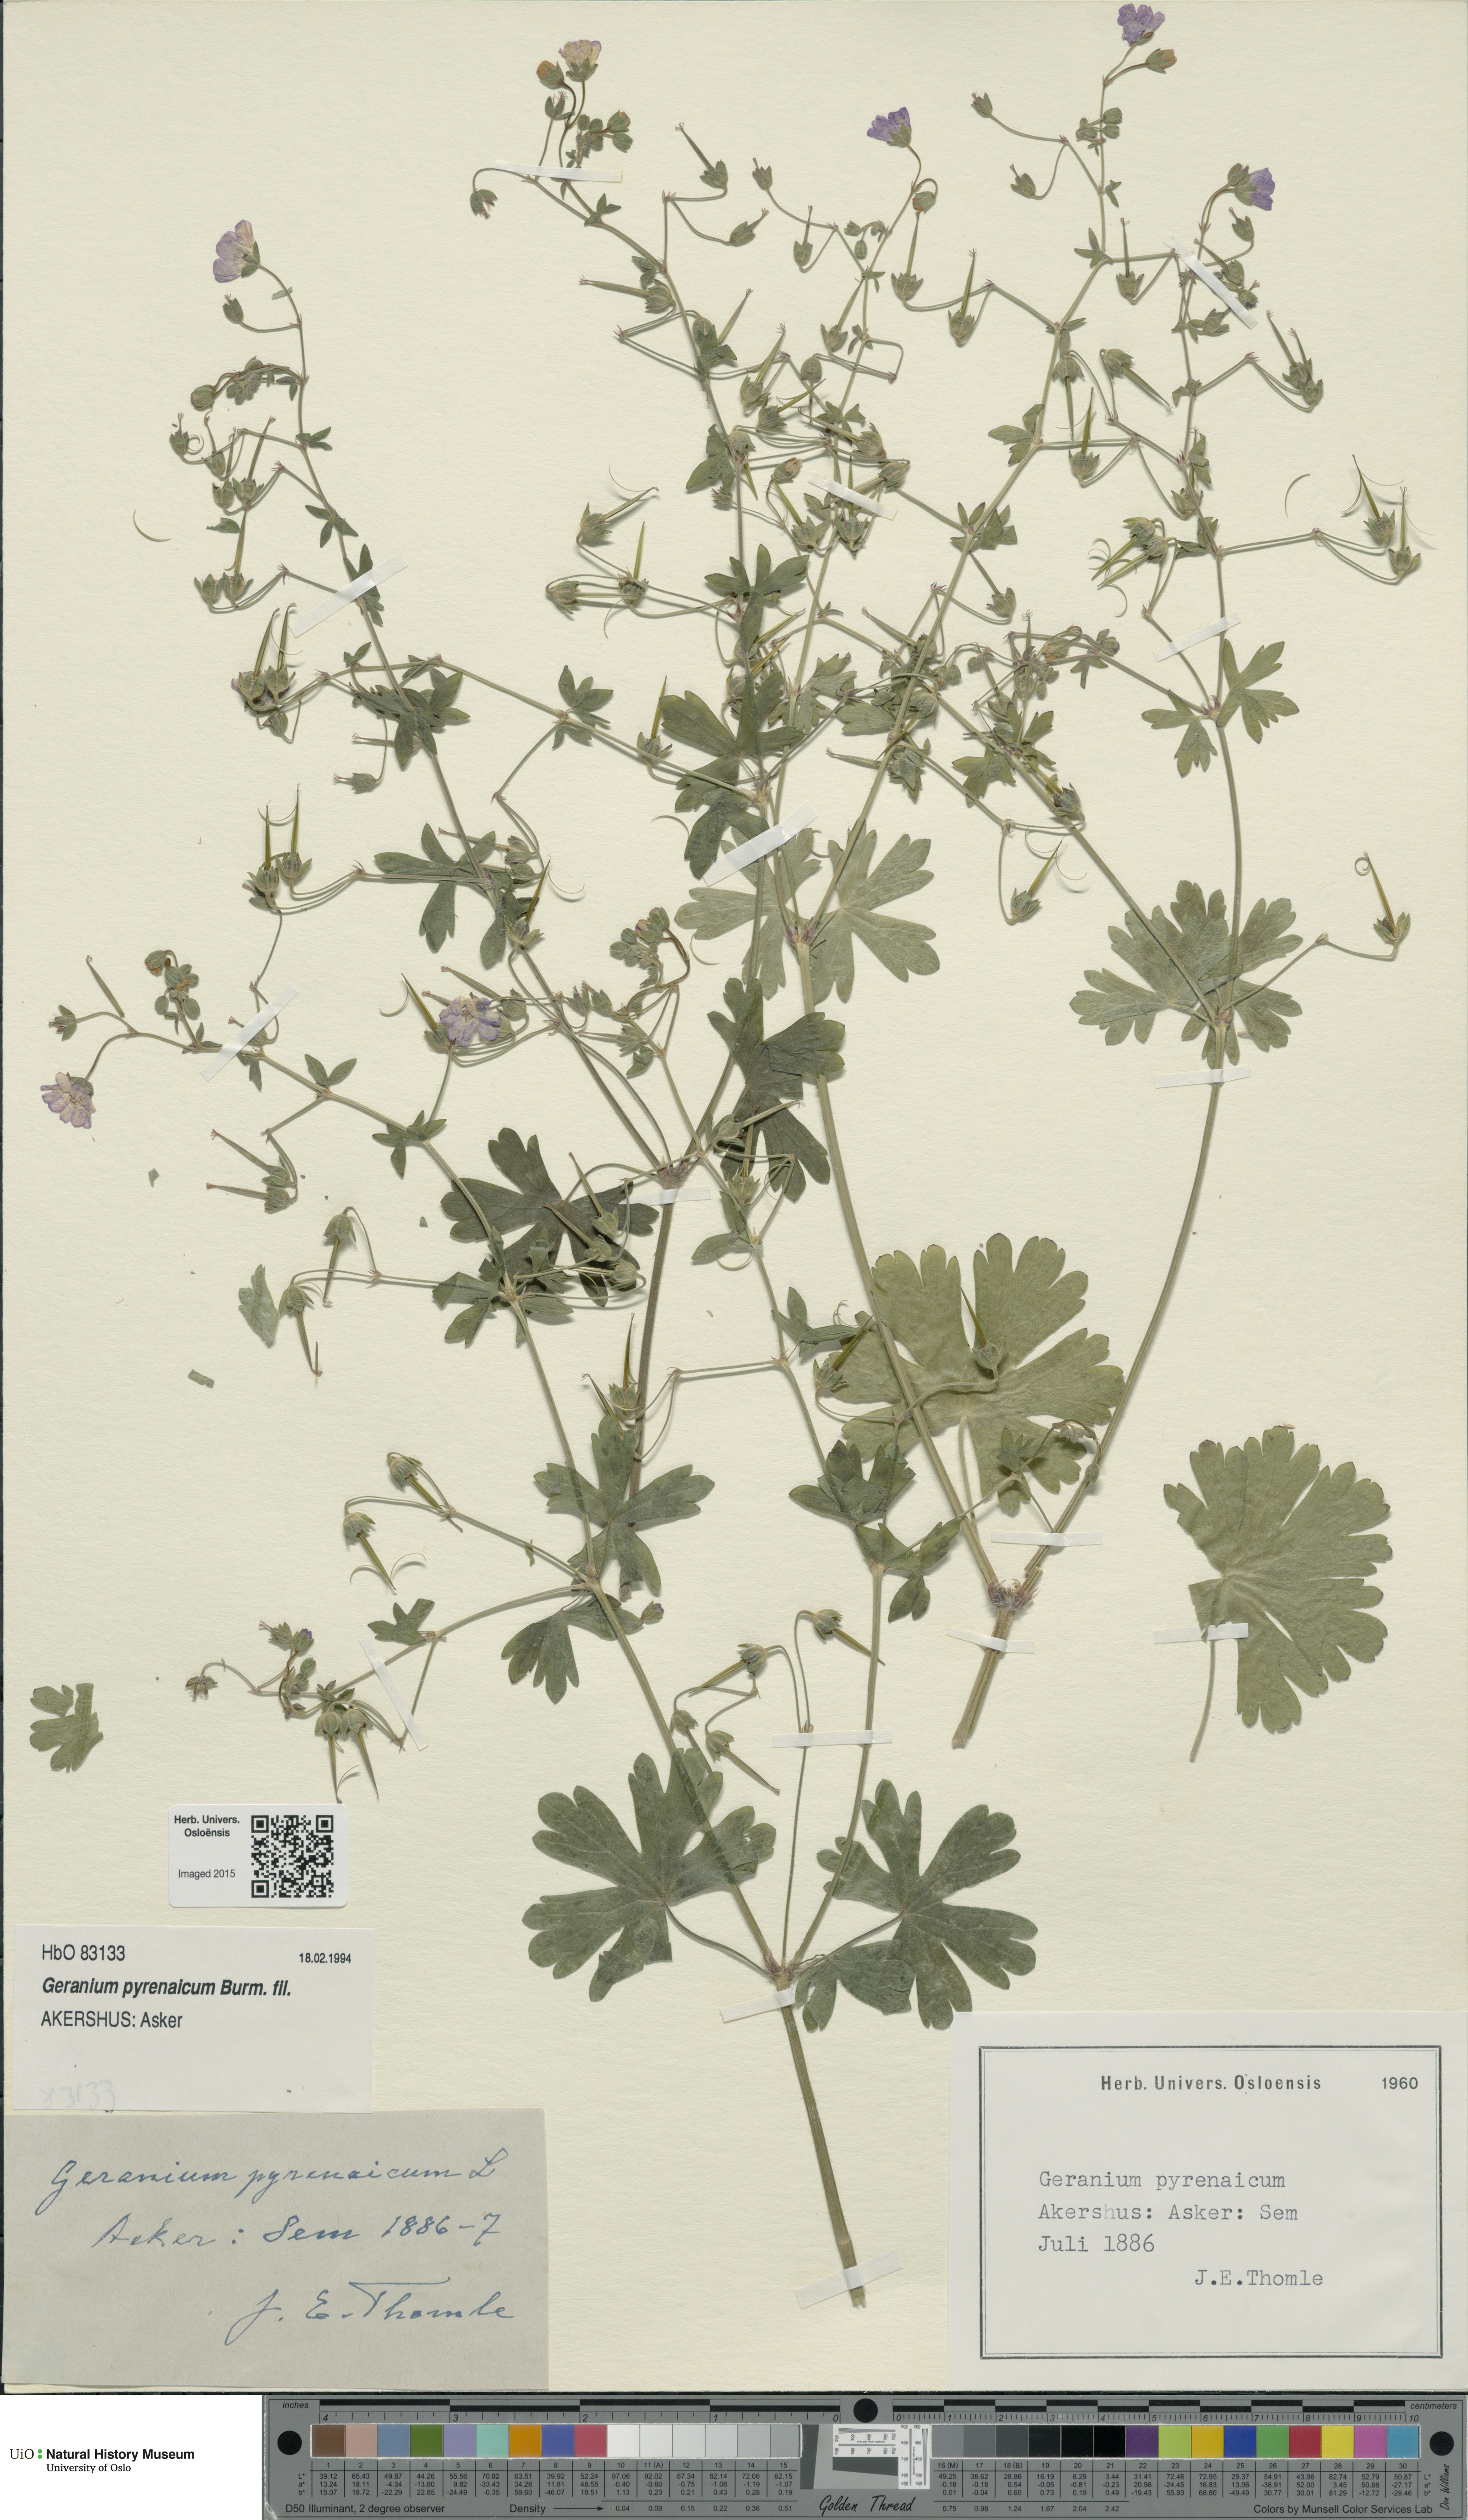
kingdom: Plantae
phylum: Tracheophyta
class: Magnoliopsida
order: Geraniales
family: Geraniaceae
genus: Geranium
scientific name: Geranium pyrenaicum
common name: Hedgerow crane's-bill
